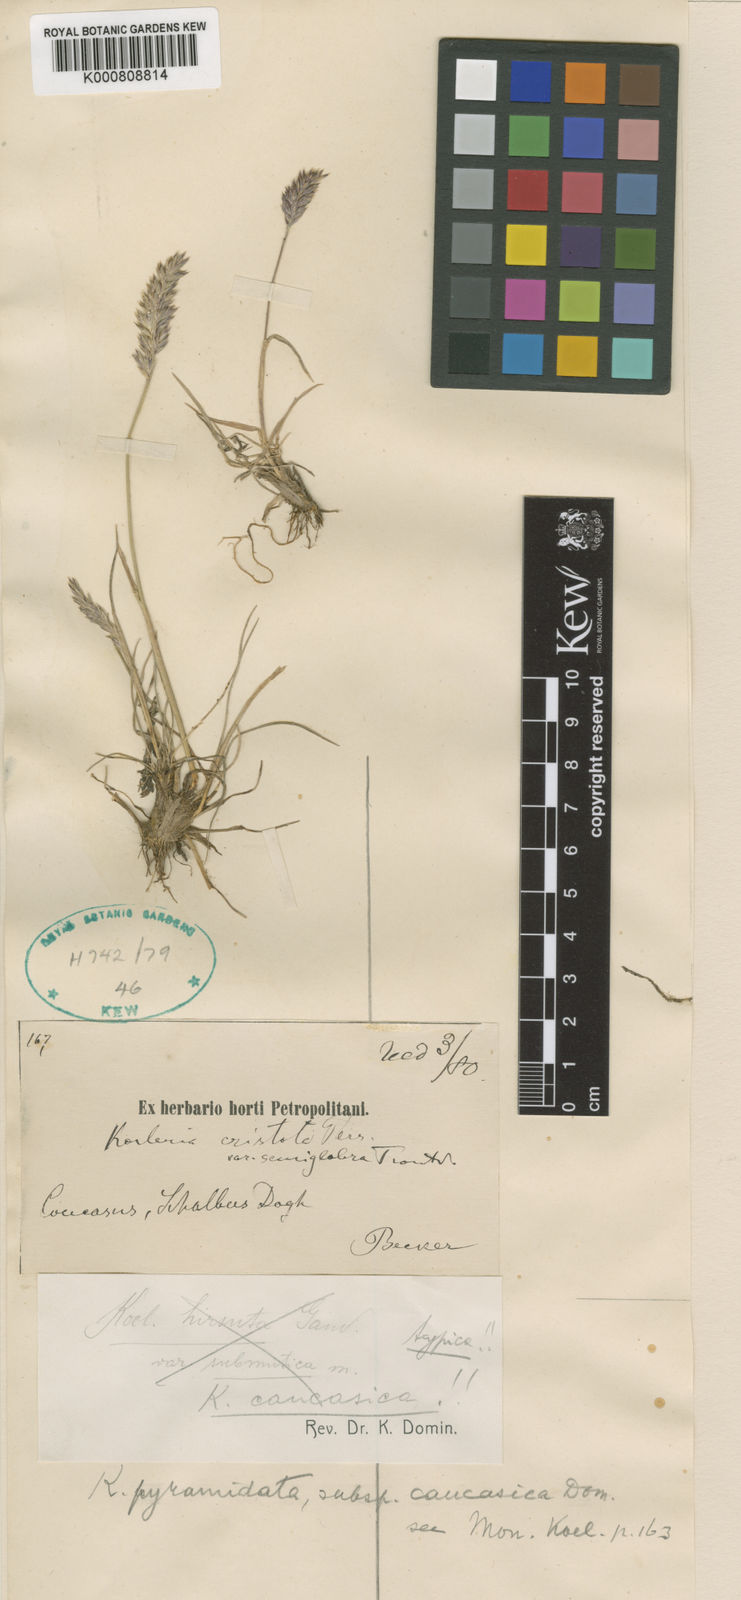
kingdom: Plantae
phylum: Tracheophyta
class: Liliopsida
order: Poales
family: Poaceae
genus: Koeleria
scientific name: Koeleria eriostachya
